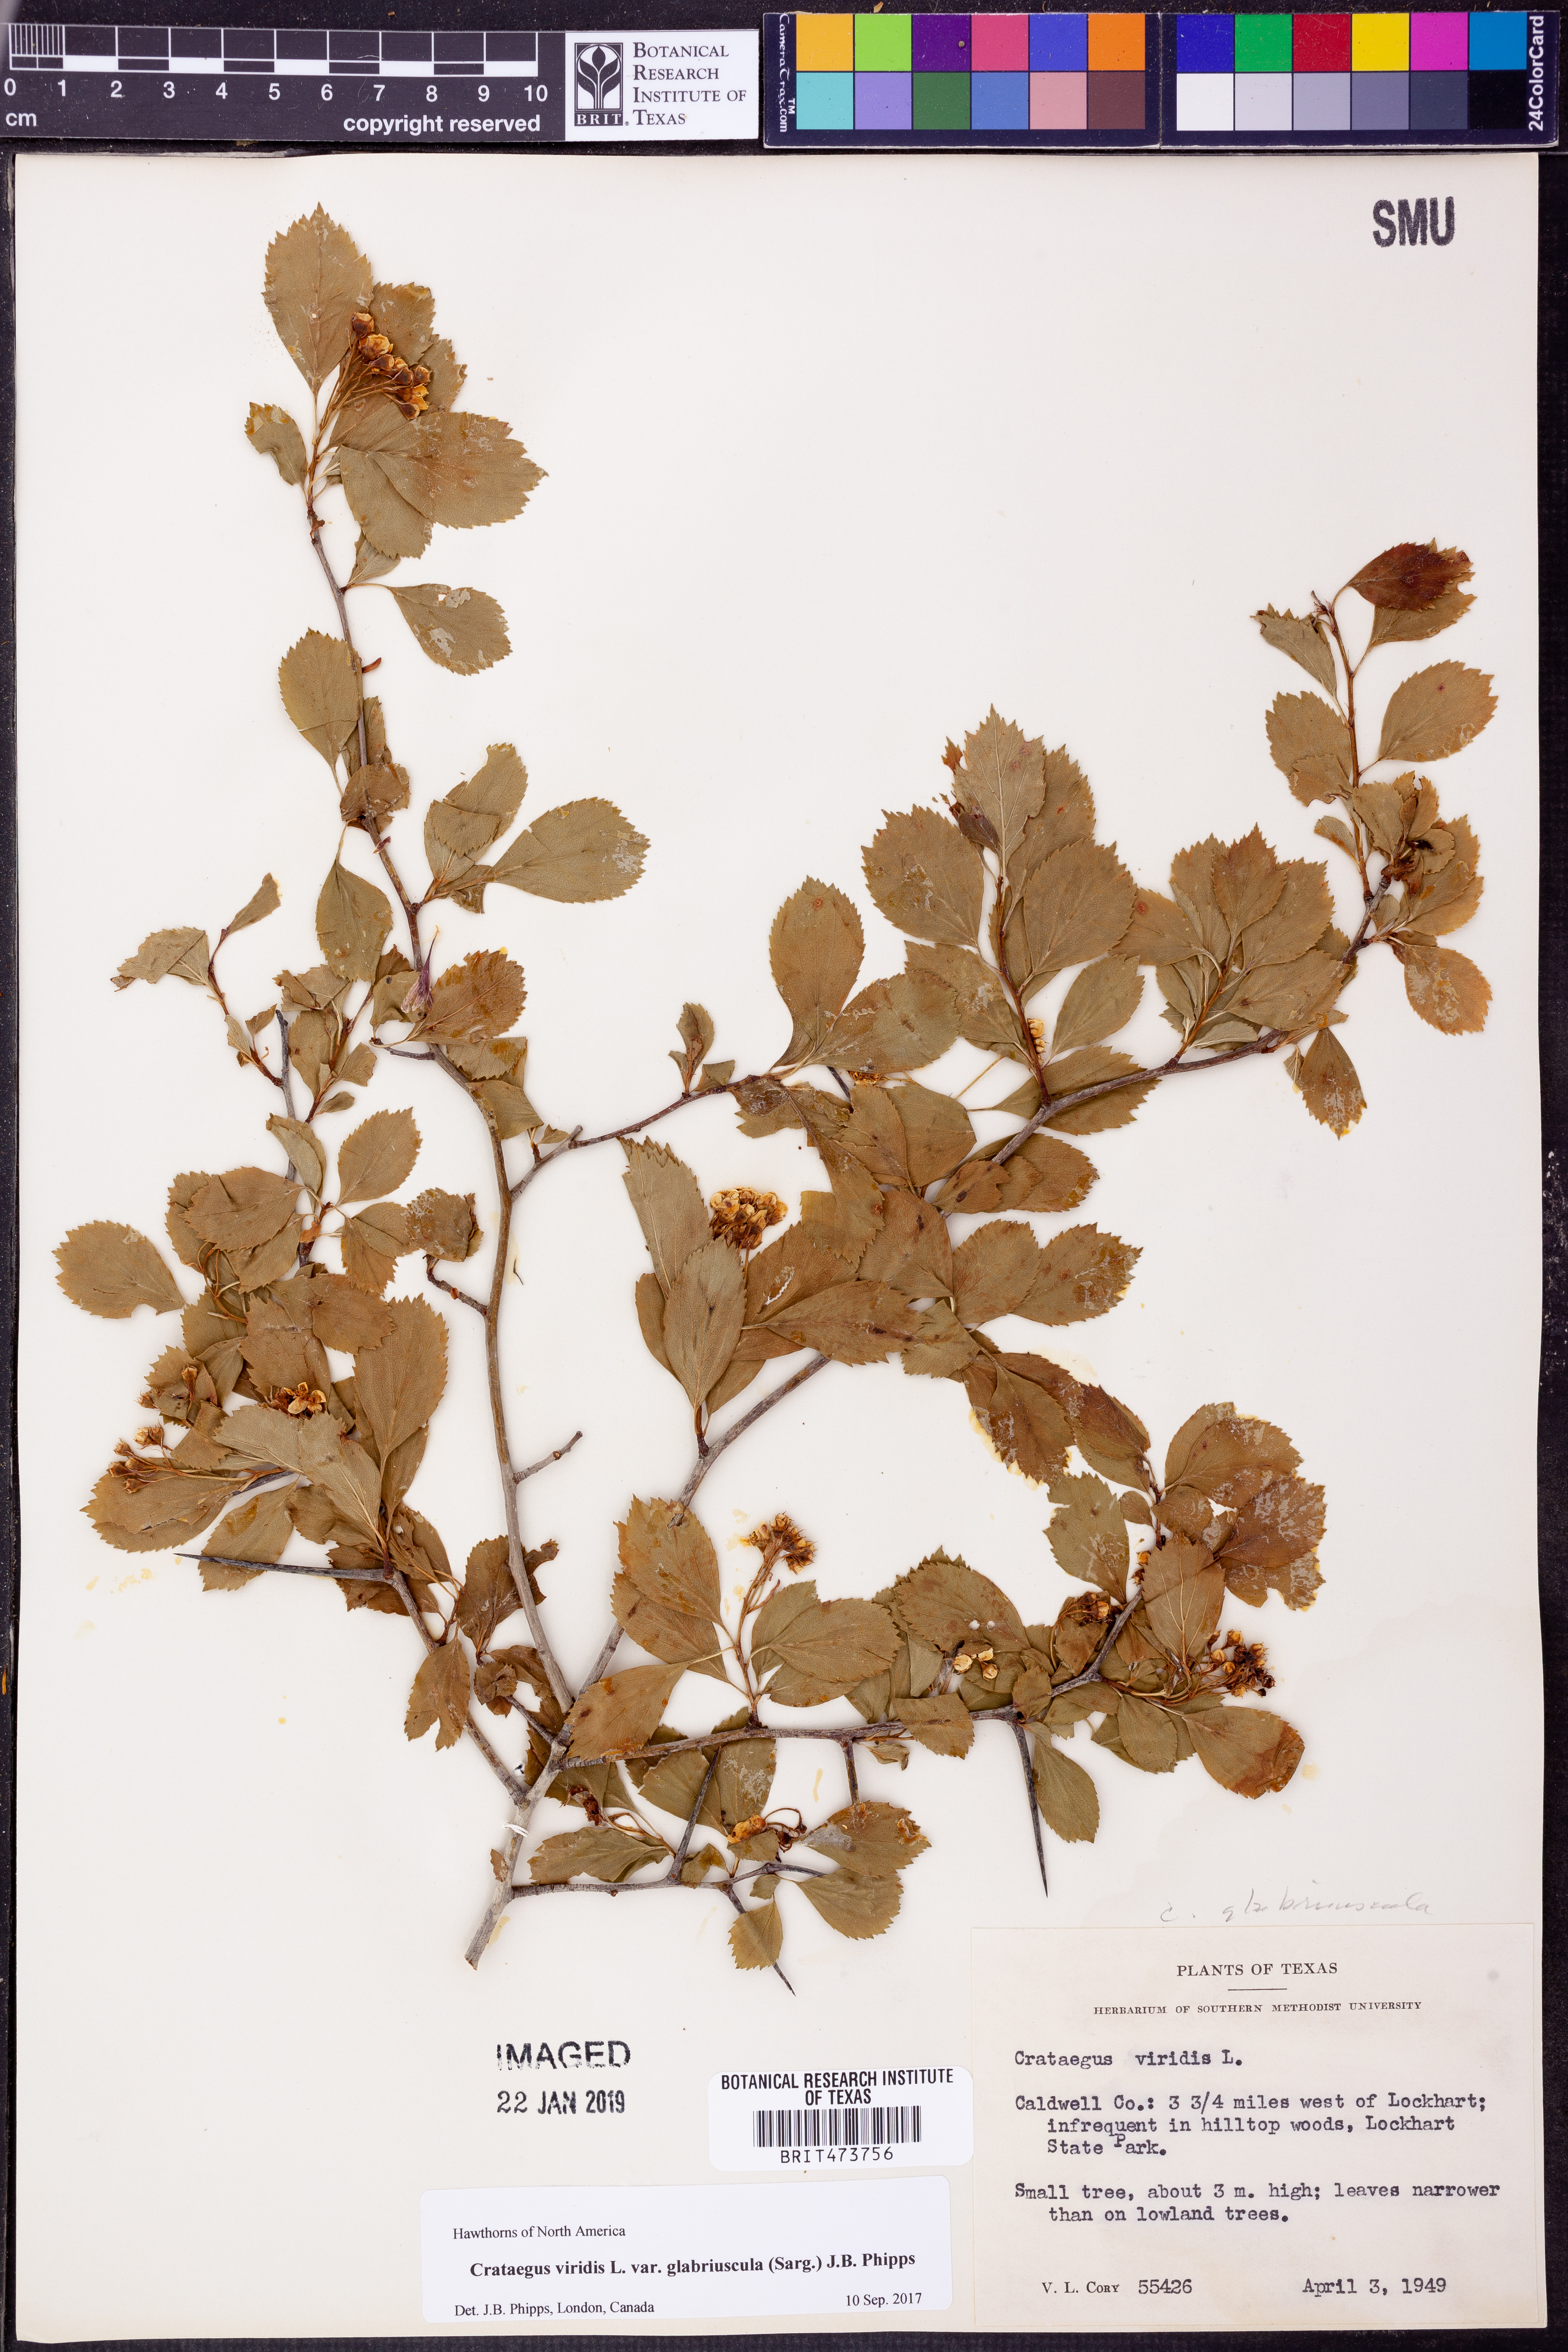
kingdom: Plantae
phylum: Tracheophyta
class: Magnoliopsida
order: Rosales
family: Rosaceae
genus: Crataegus
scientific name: Crataegus viridis
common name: Southernthorn
